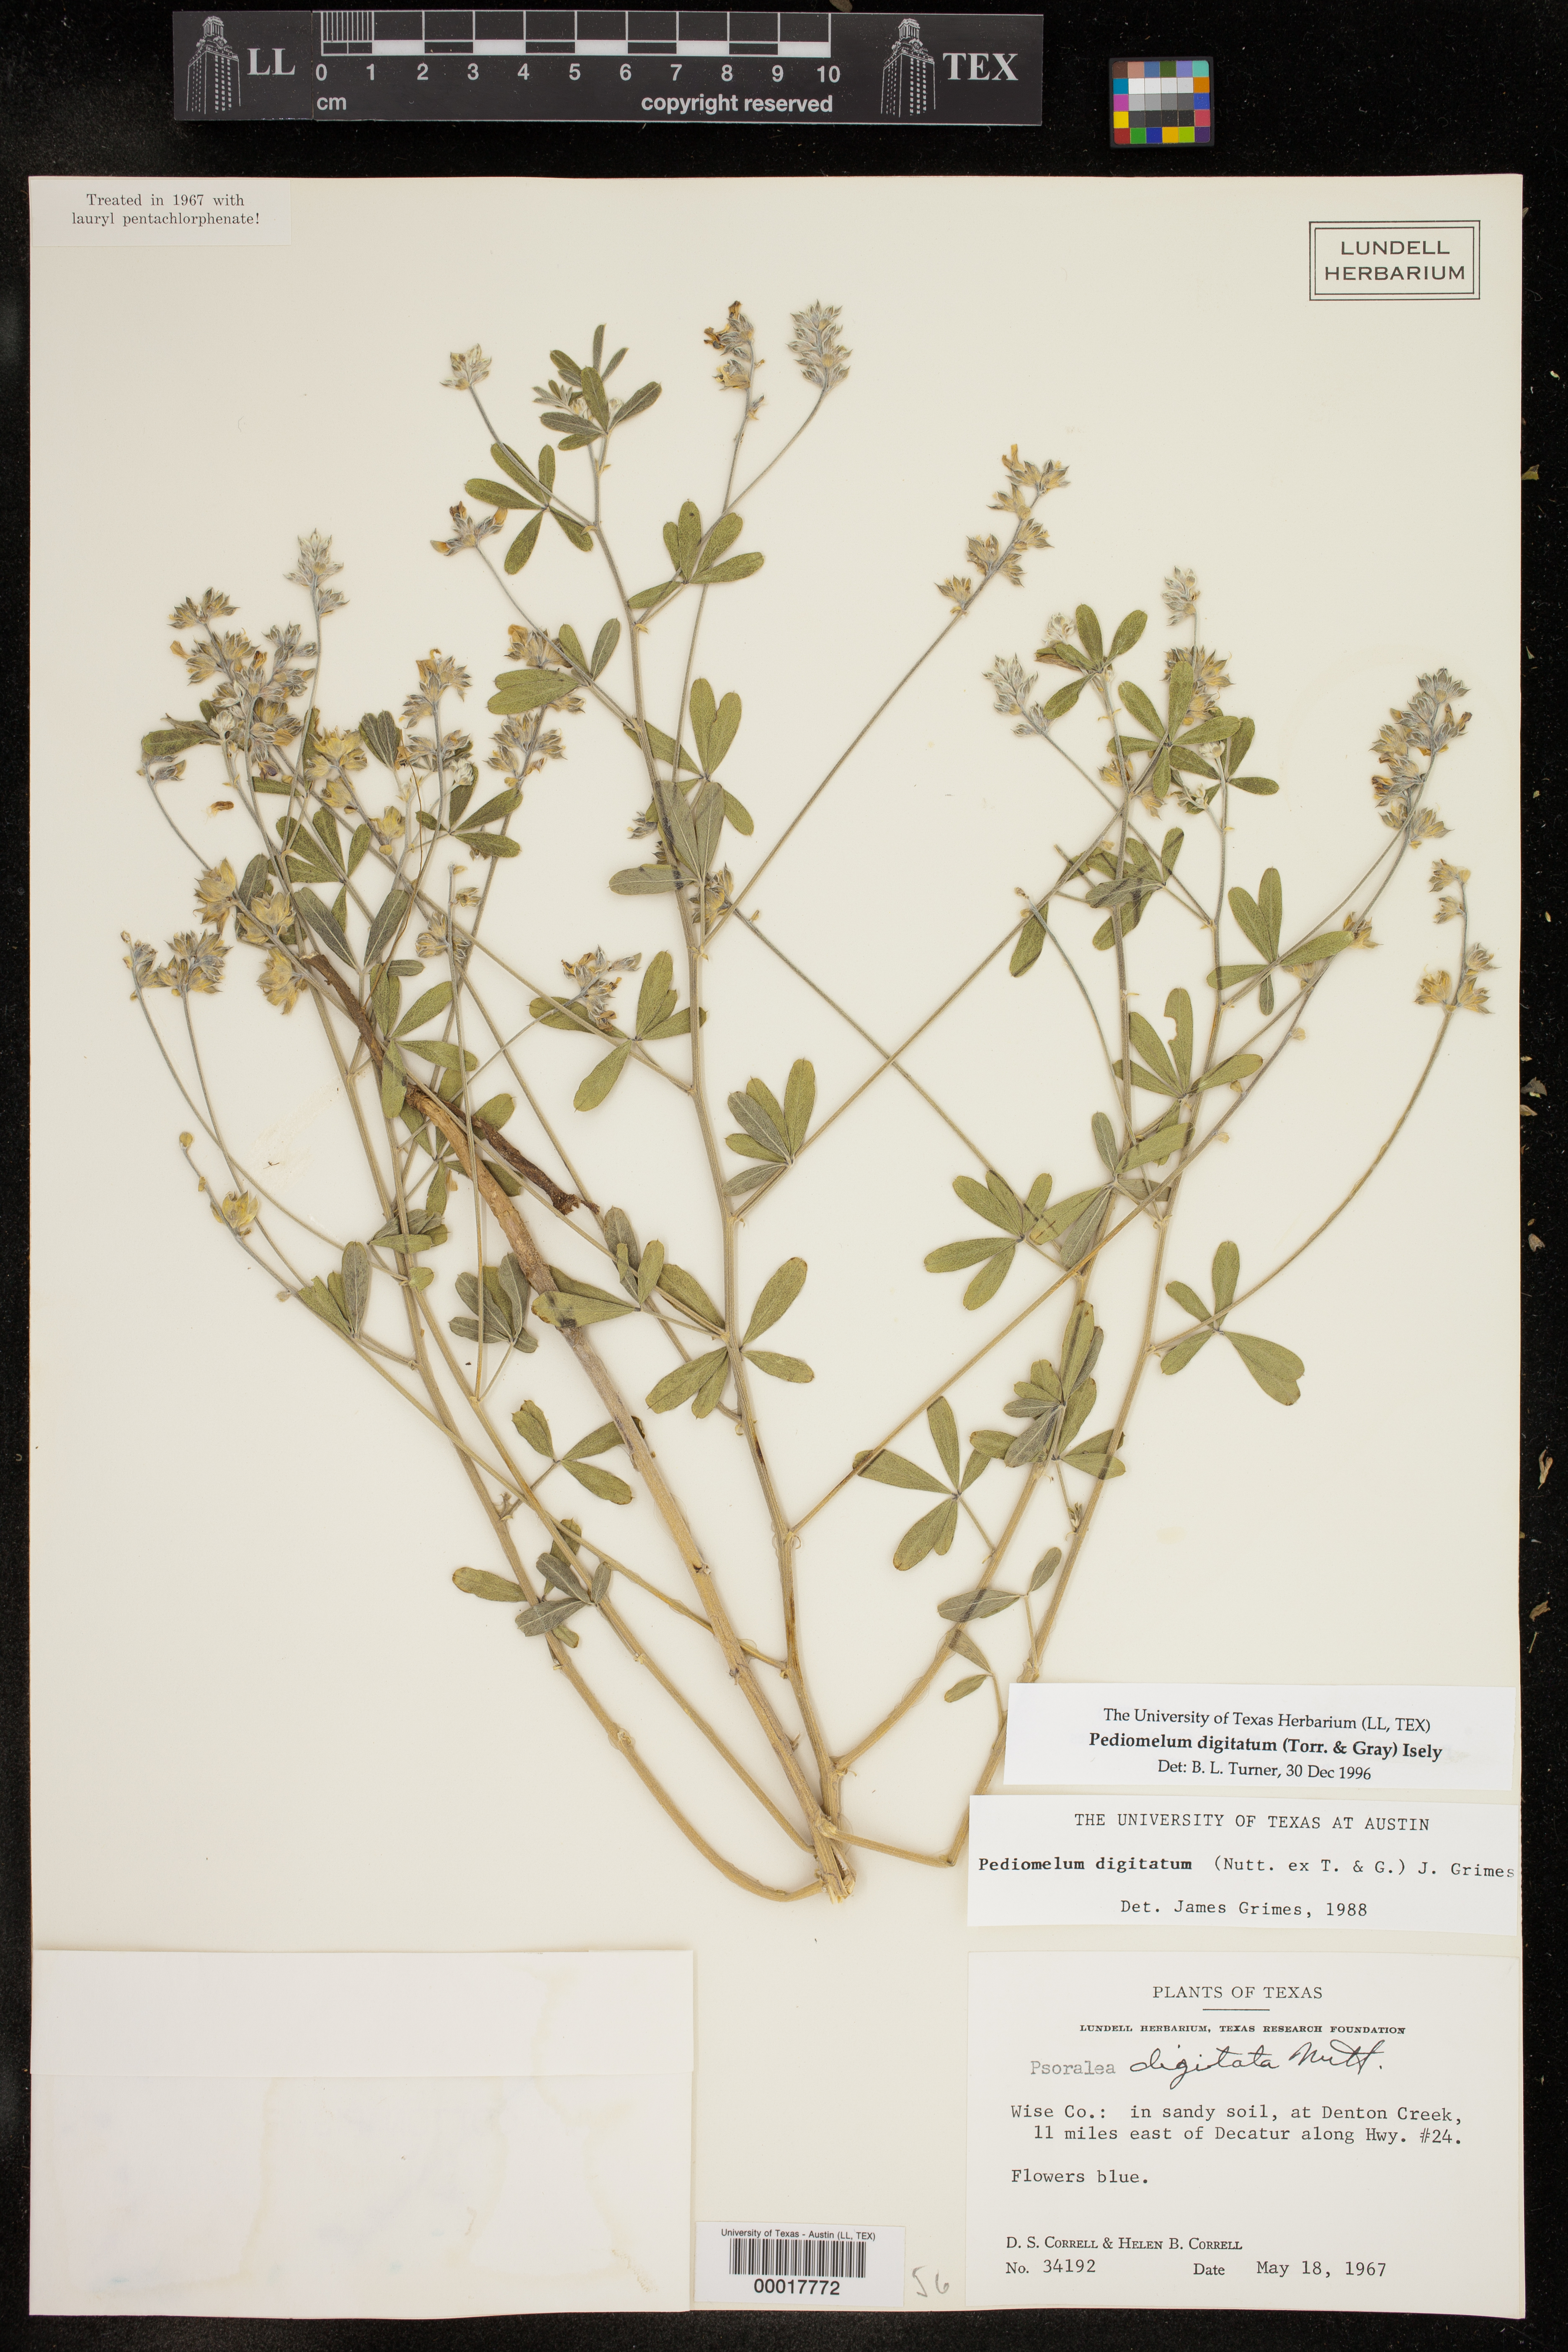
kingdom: Plantae
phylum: Tracheophyta
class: Magnoliopsida
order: Fabales
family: Fabaceae
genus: Pediomelum
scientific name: Pediomelum digitatum
